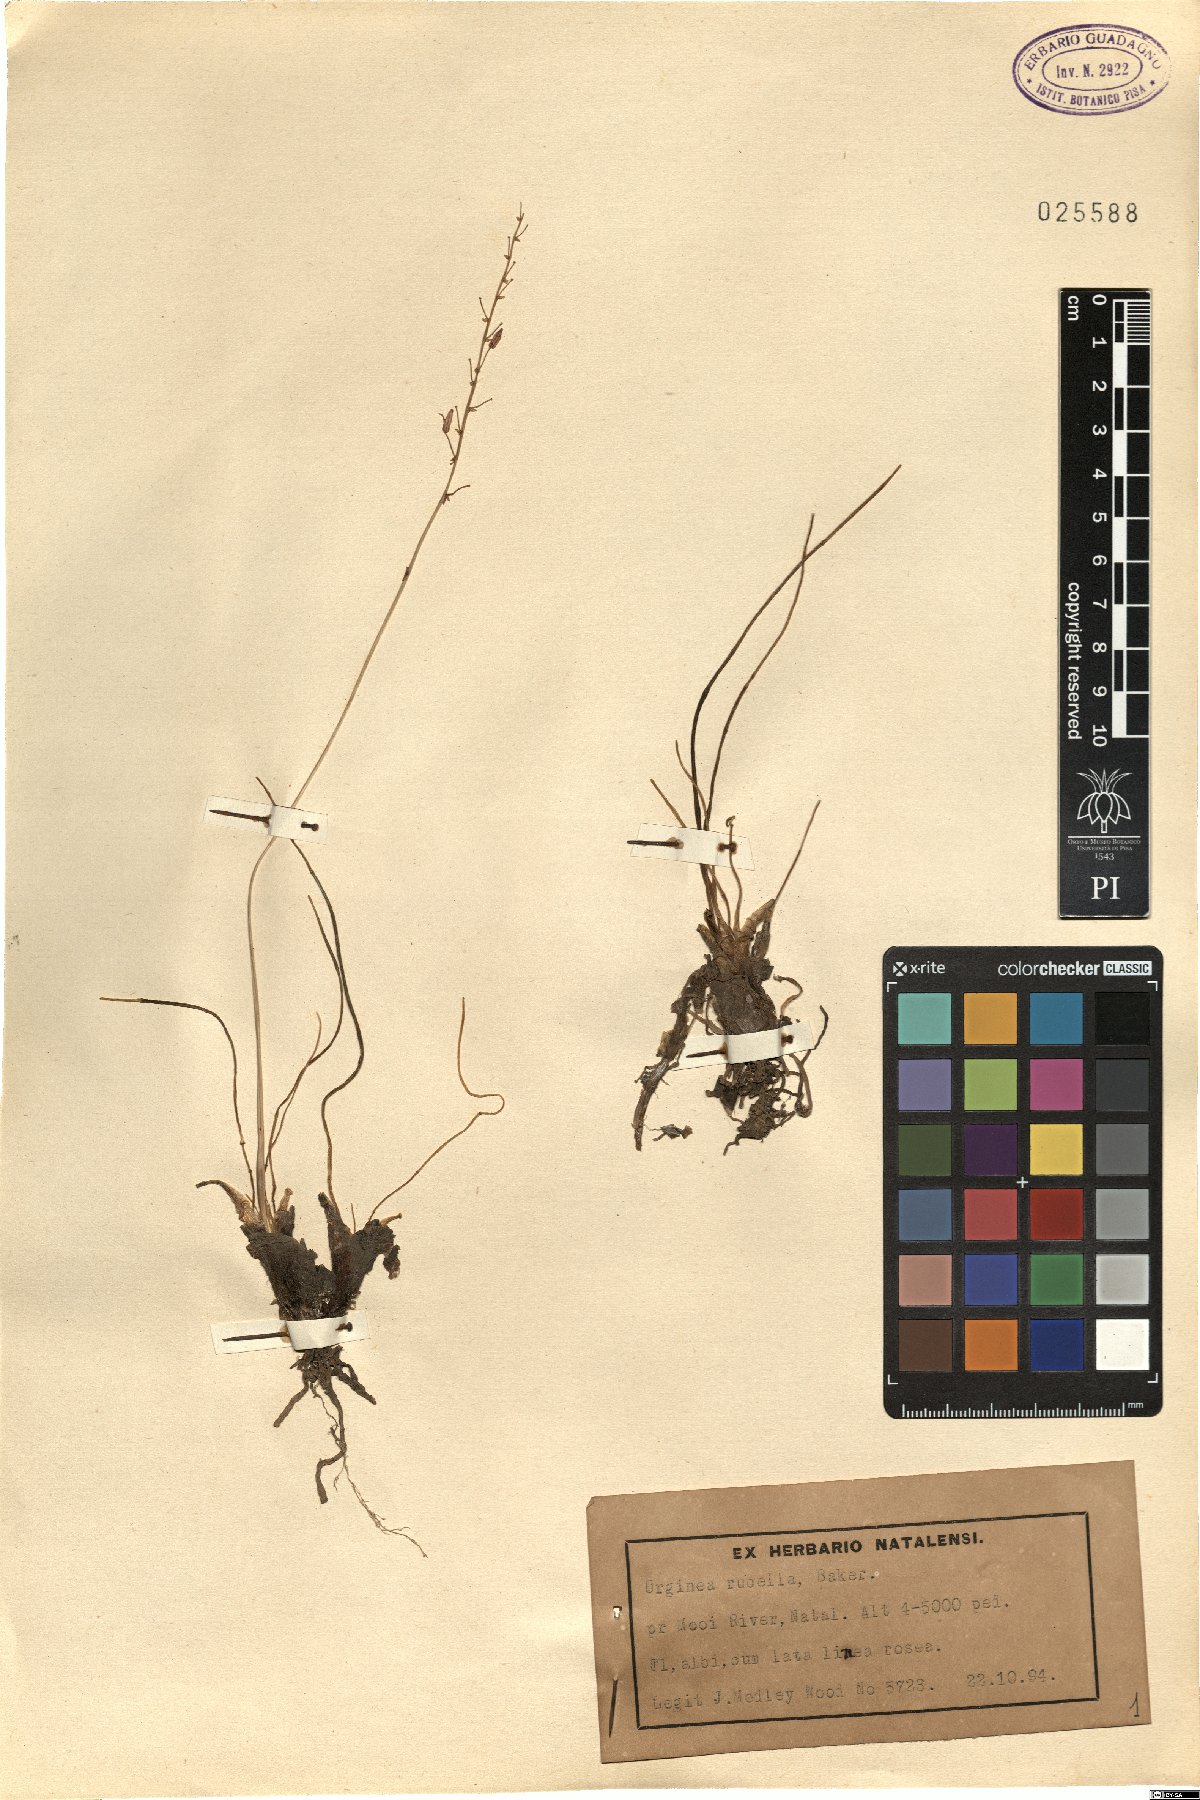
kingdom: Plantae
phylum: Tracheophyta
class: Liliopsida
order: Asparagales
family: Asparagaceae
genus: Drimia
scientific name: Drimia modesta
